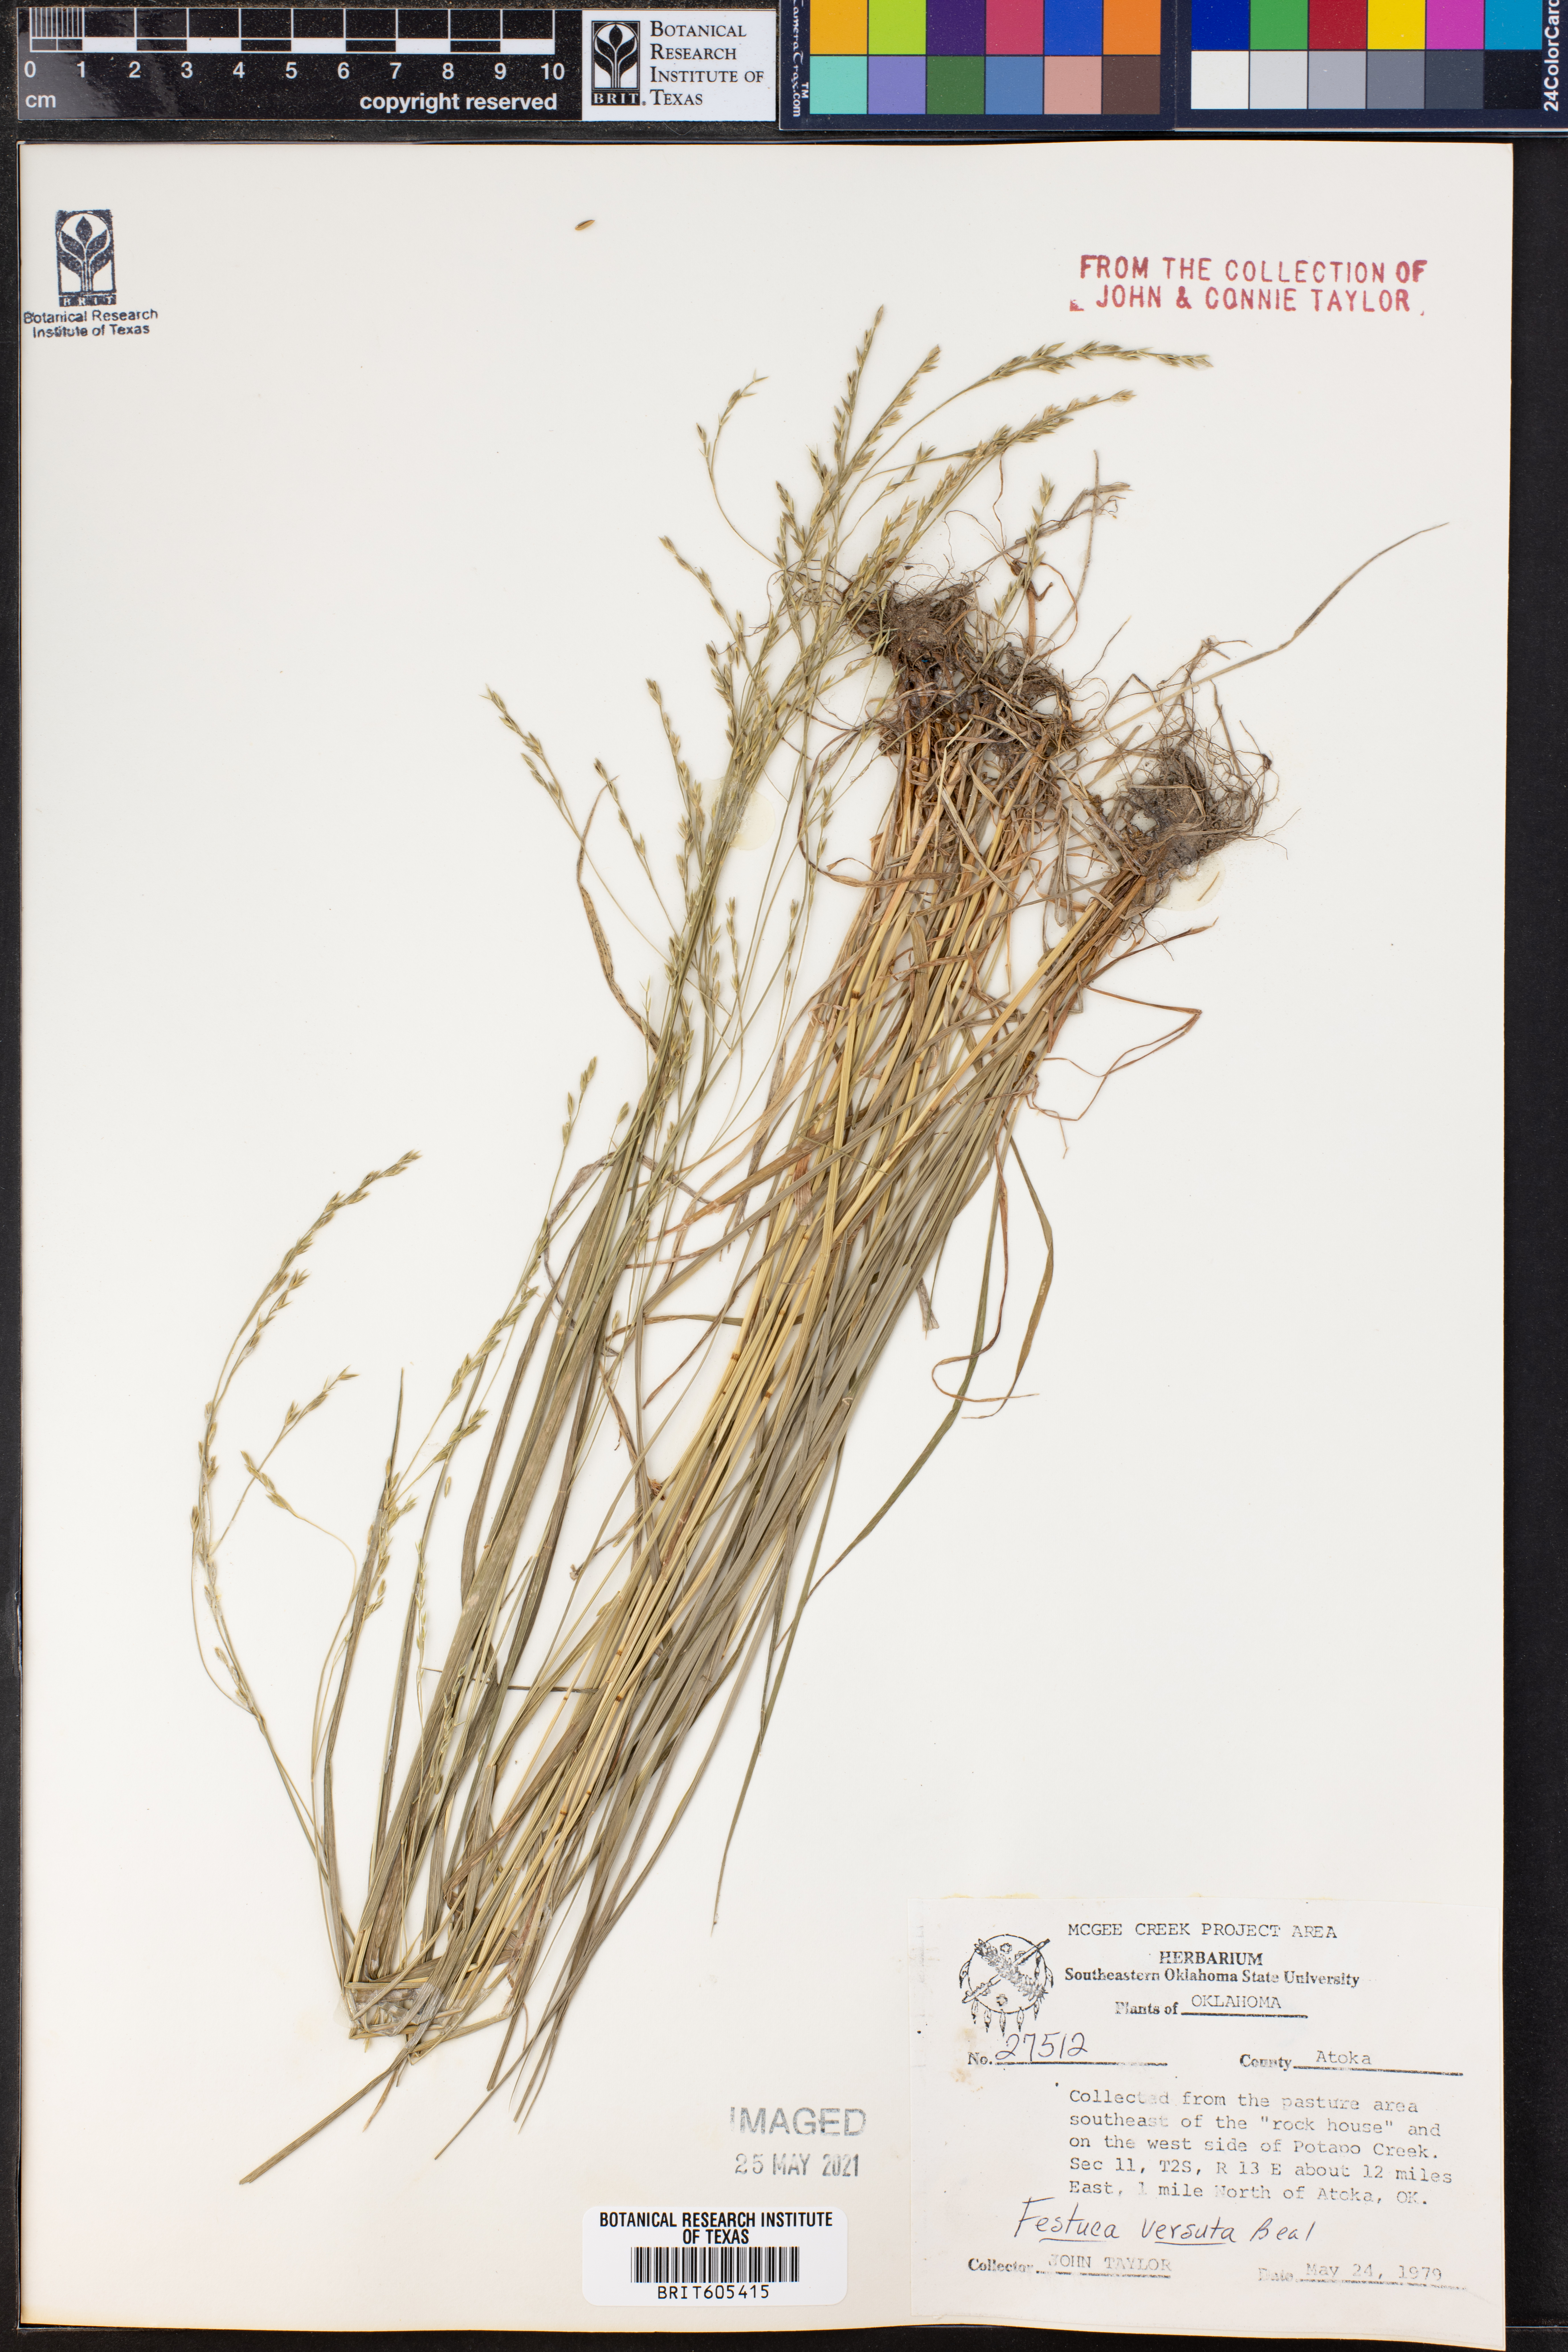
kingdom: Plantae
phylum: Tracheophyta
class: Liliopsida
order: Poales
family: Poaceae
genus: Festuca
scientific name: Festuca versuta
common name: Texas fescue
